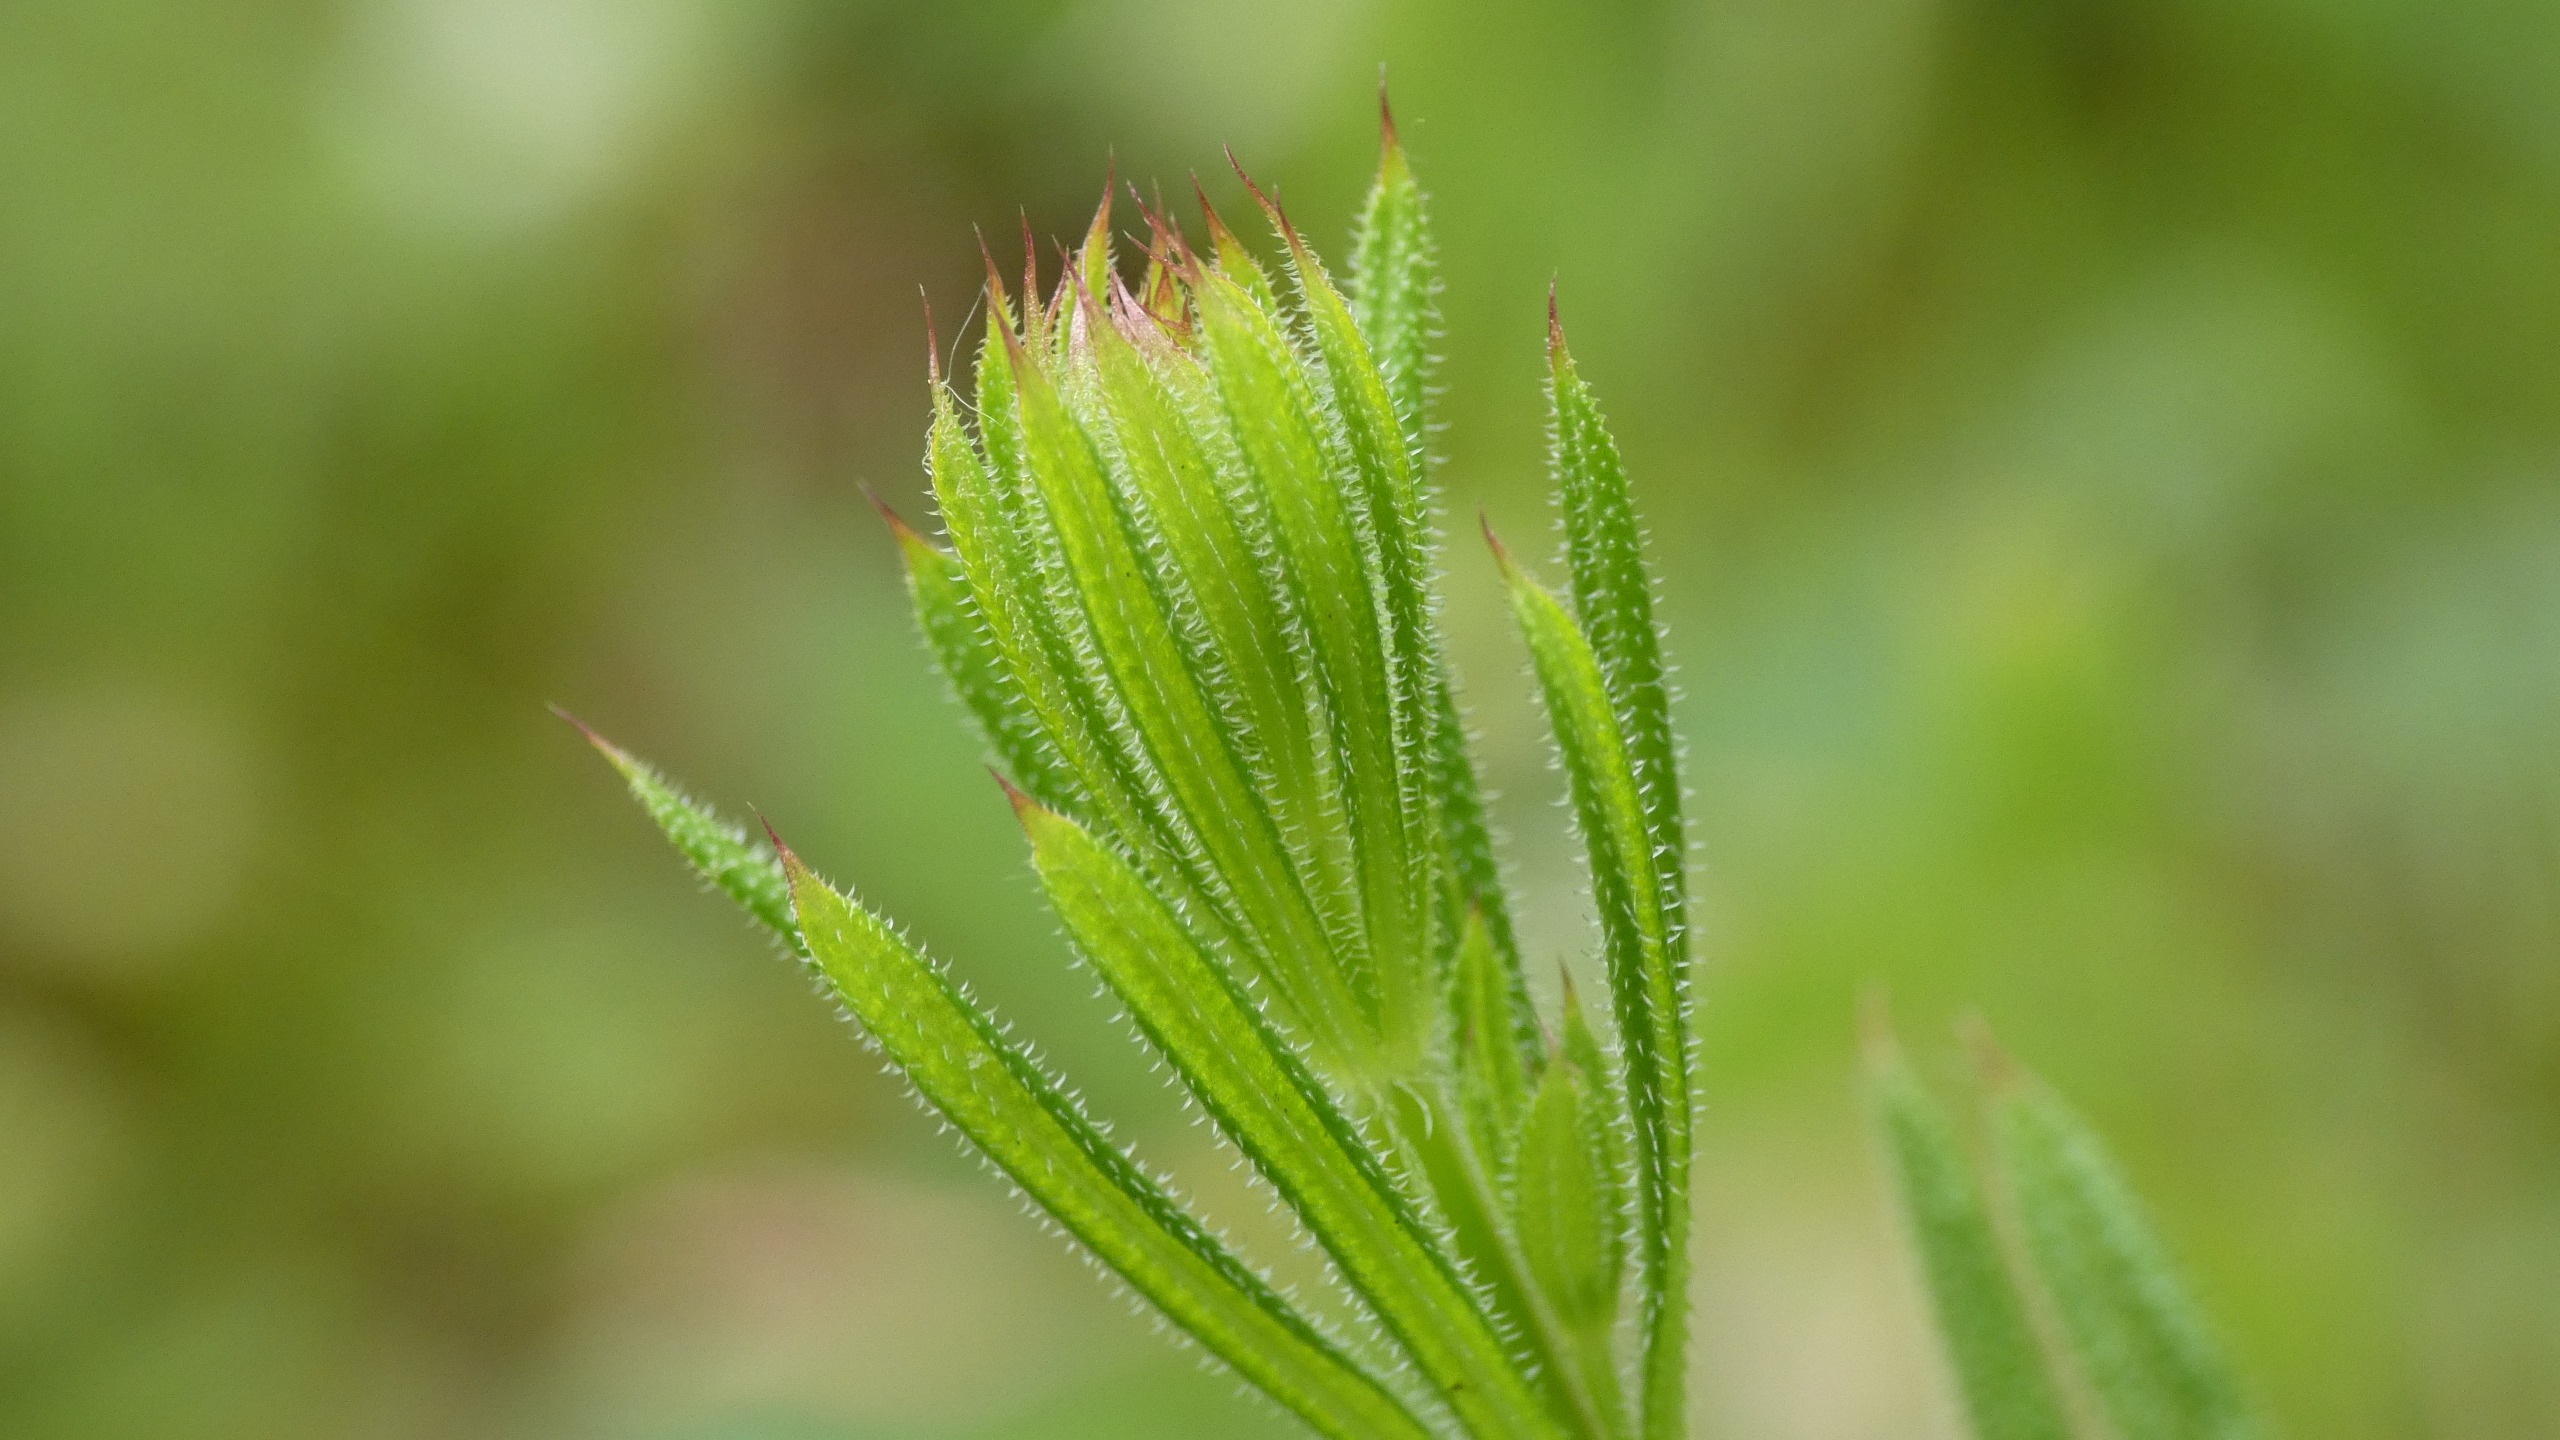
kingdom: Plantae
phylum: Tracheophyta
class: Magnoliopsida
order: Gentianales
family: Rubiaceae
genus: Galium
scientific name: Galium aparine
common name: Burre-snerre
